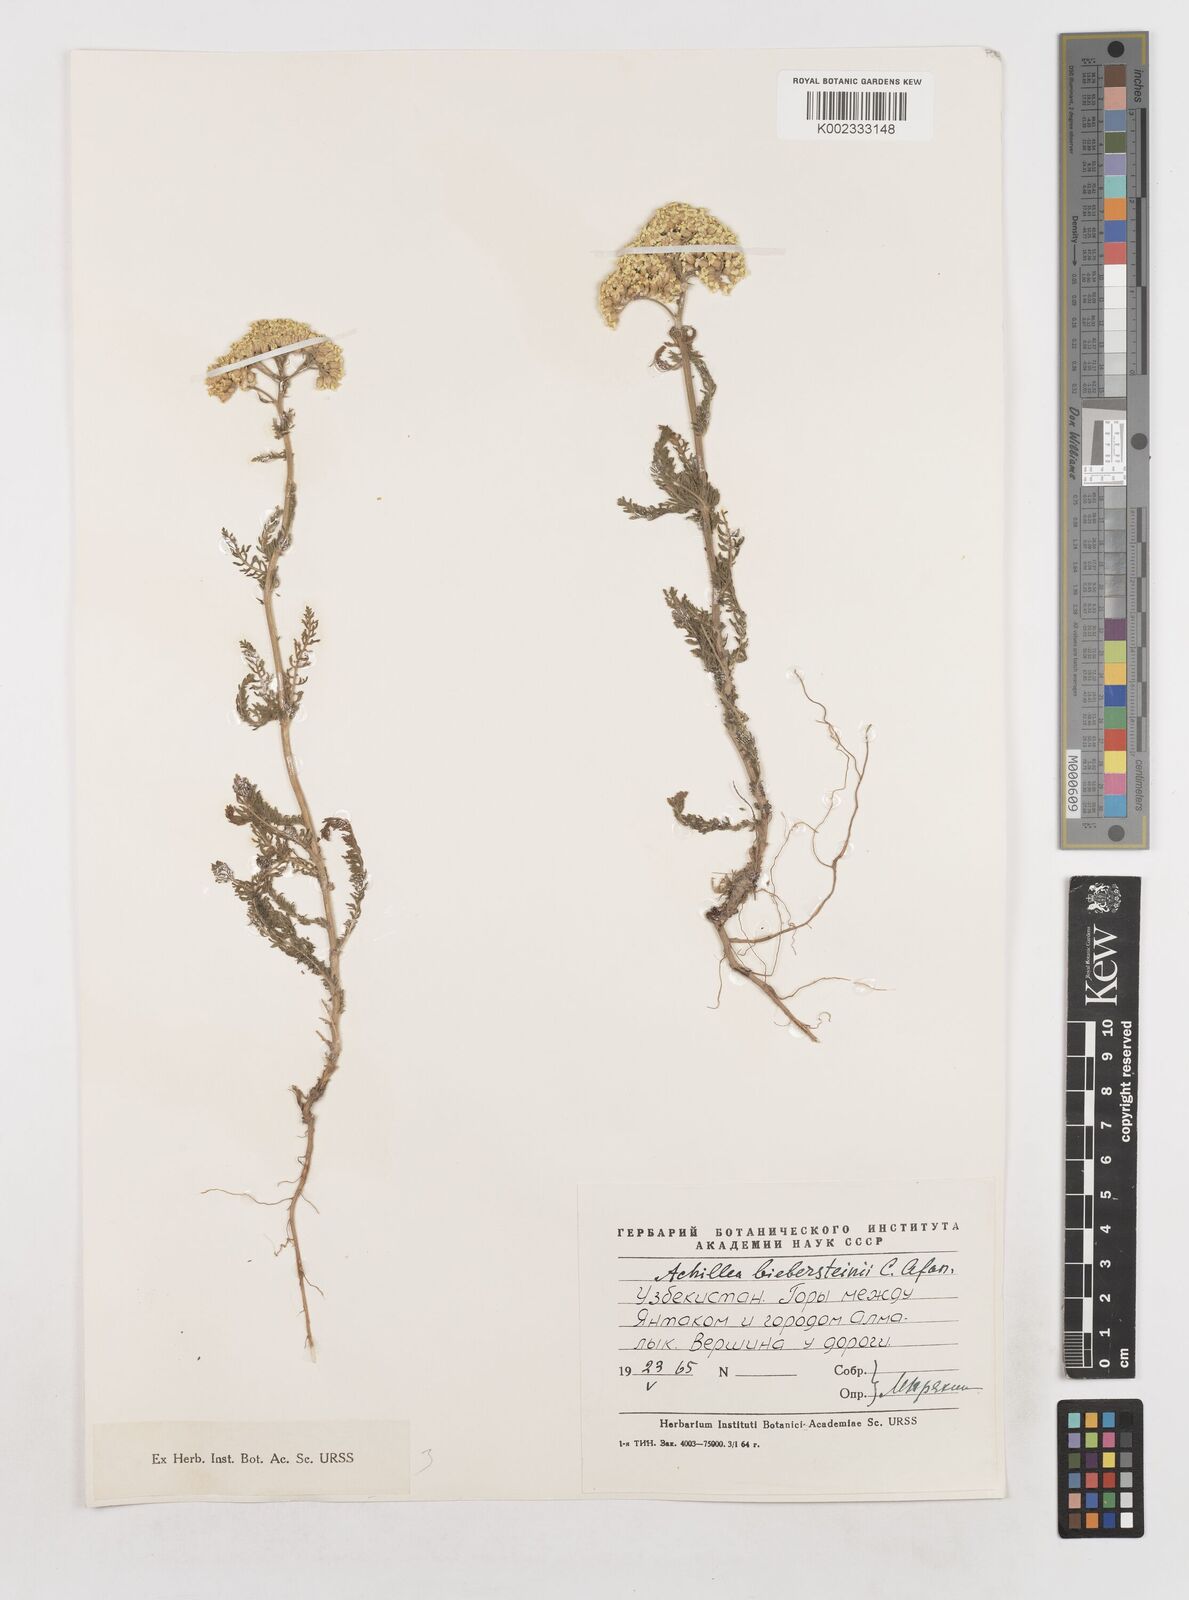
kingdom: Plantae
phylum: Tracheophyta
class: Magnoliopsida
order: Asterales
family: Asteraceae
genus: Achillea
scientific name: Achillea arabica
